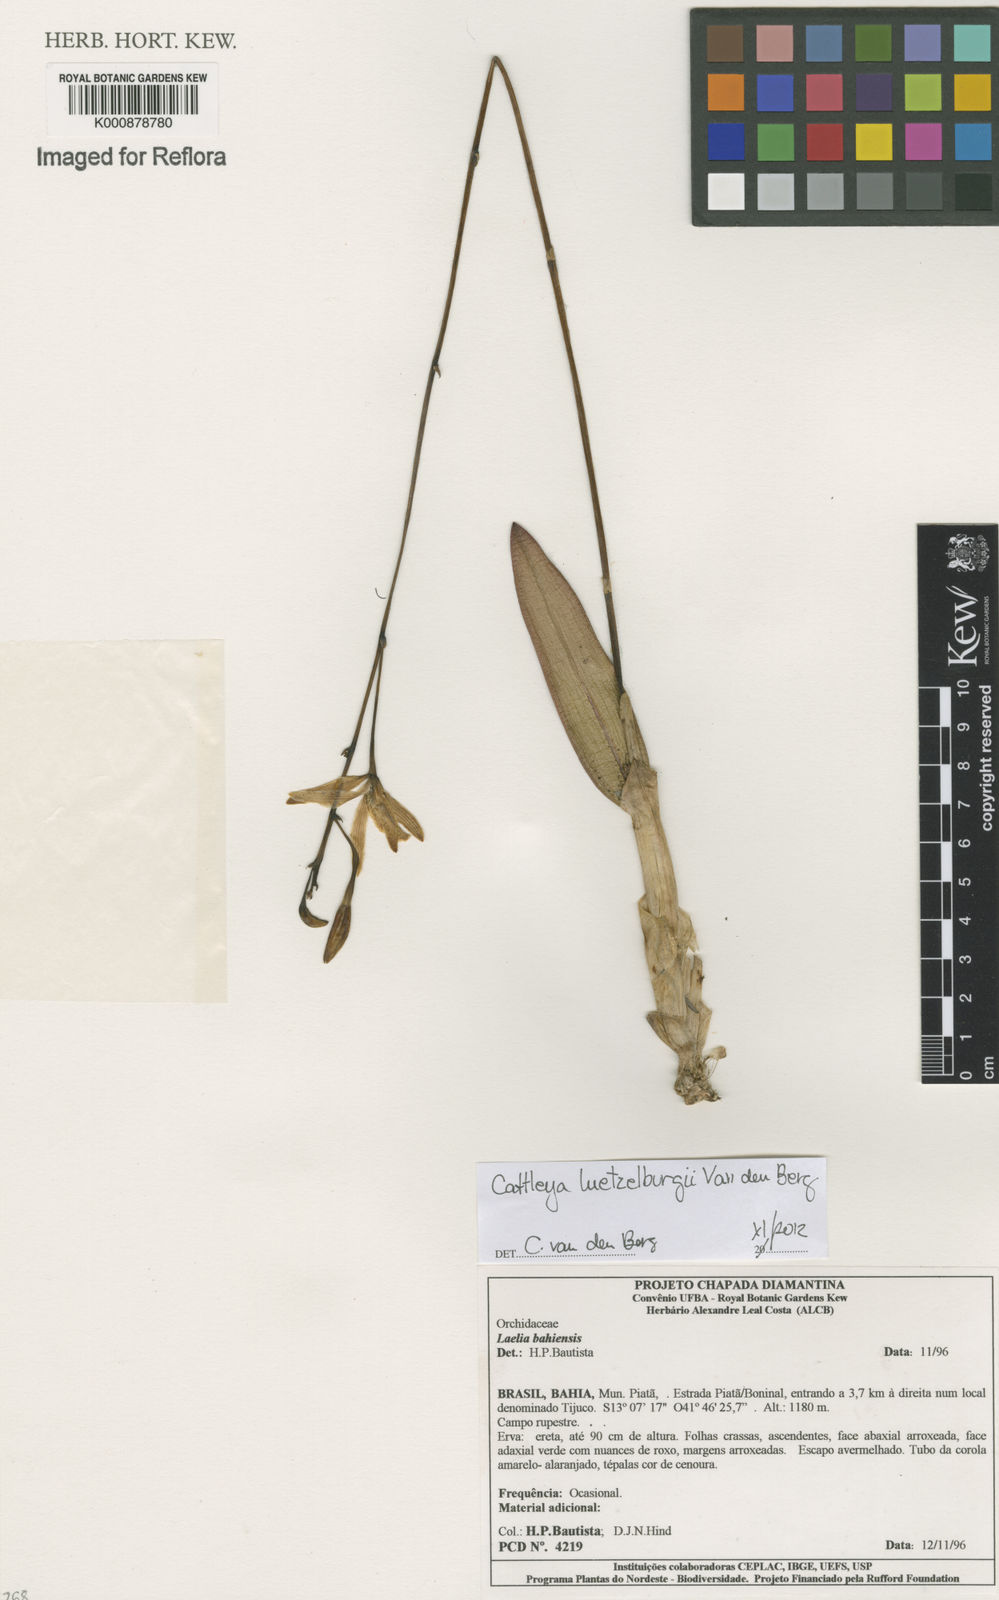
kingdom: Plantae
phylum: Tracheophyta
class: Liliopsida
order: Asparagales
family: Orchidaceae
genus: Cattleya
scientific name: Cattleya luetzelburgii
